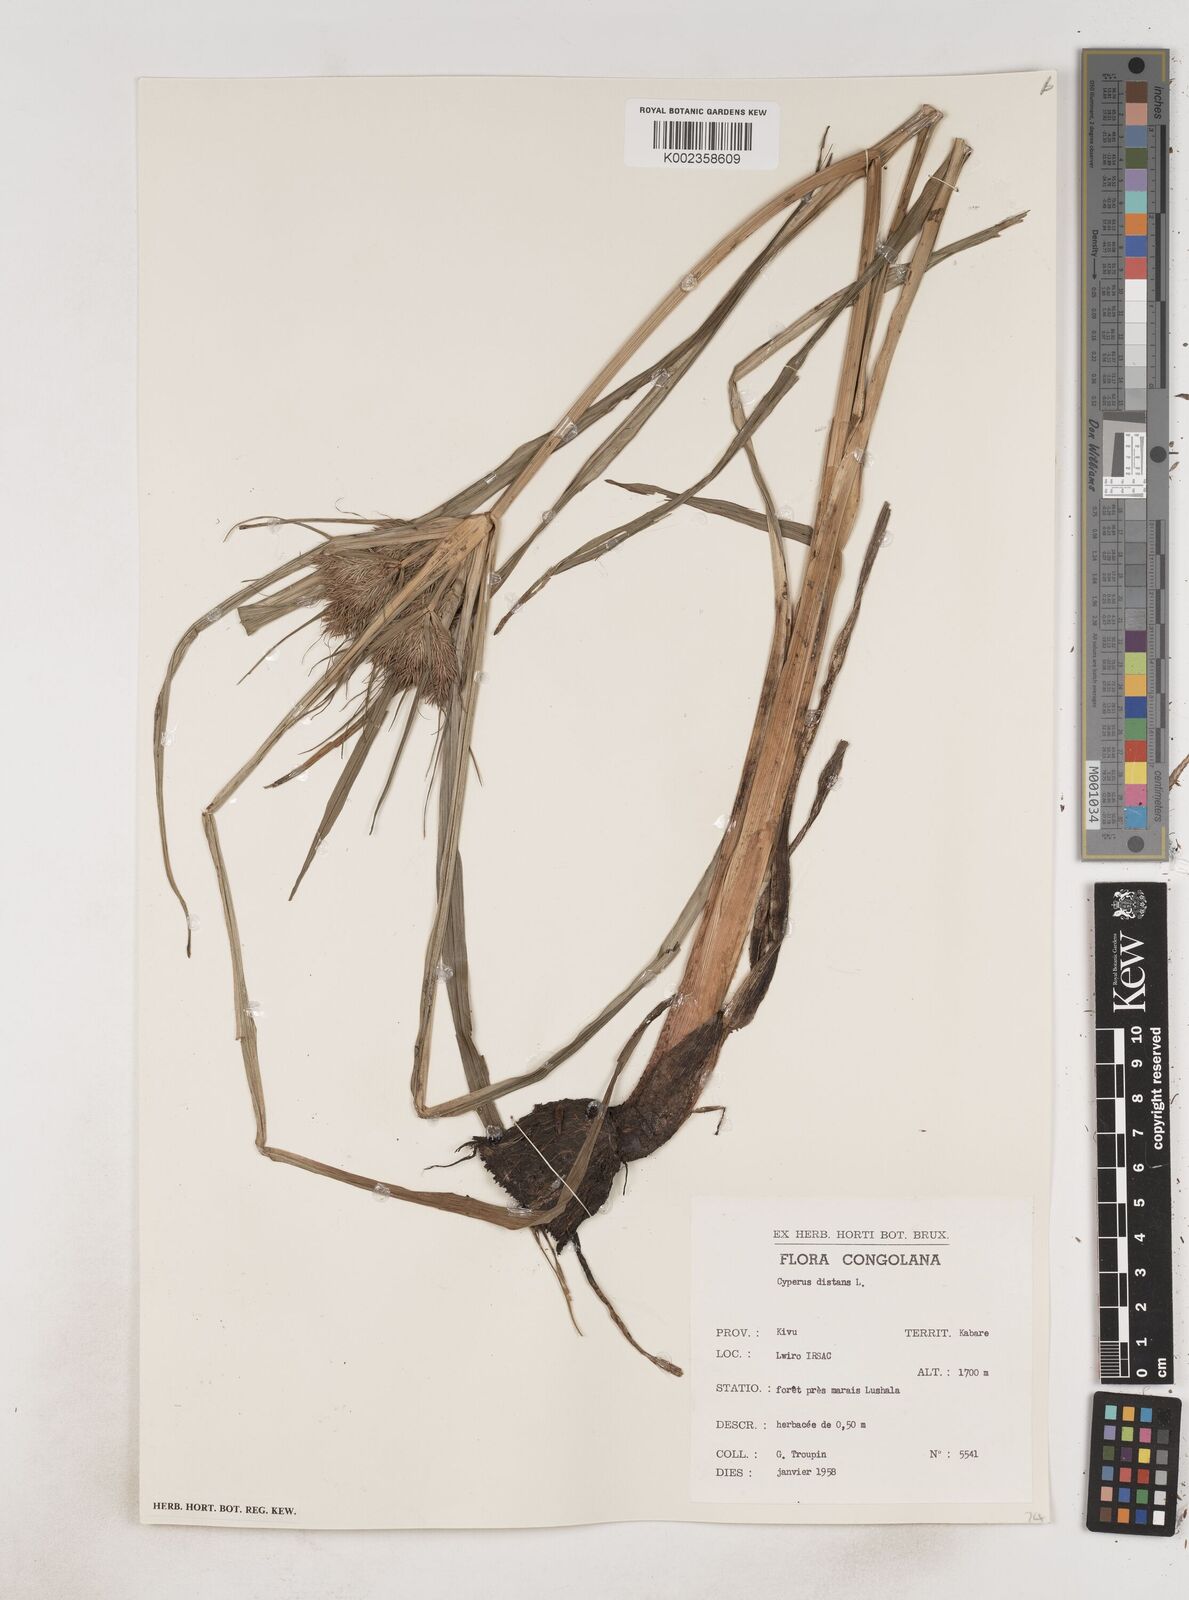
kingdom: Plantae
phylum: Tracheophyta
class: Liliopsida
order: Poales
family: Cyperaceae
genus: Cyperus
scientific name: Cyperus distans
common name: Slender cyperus
